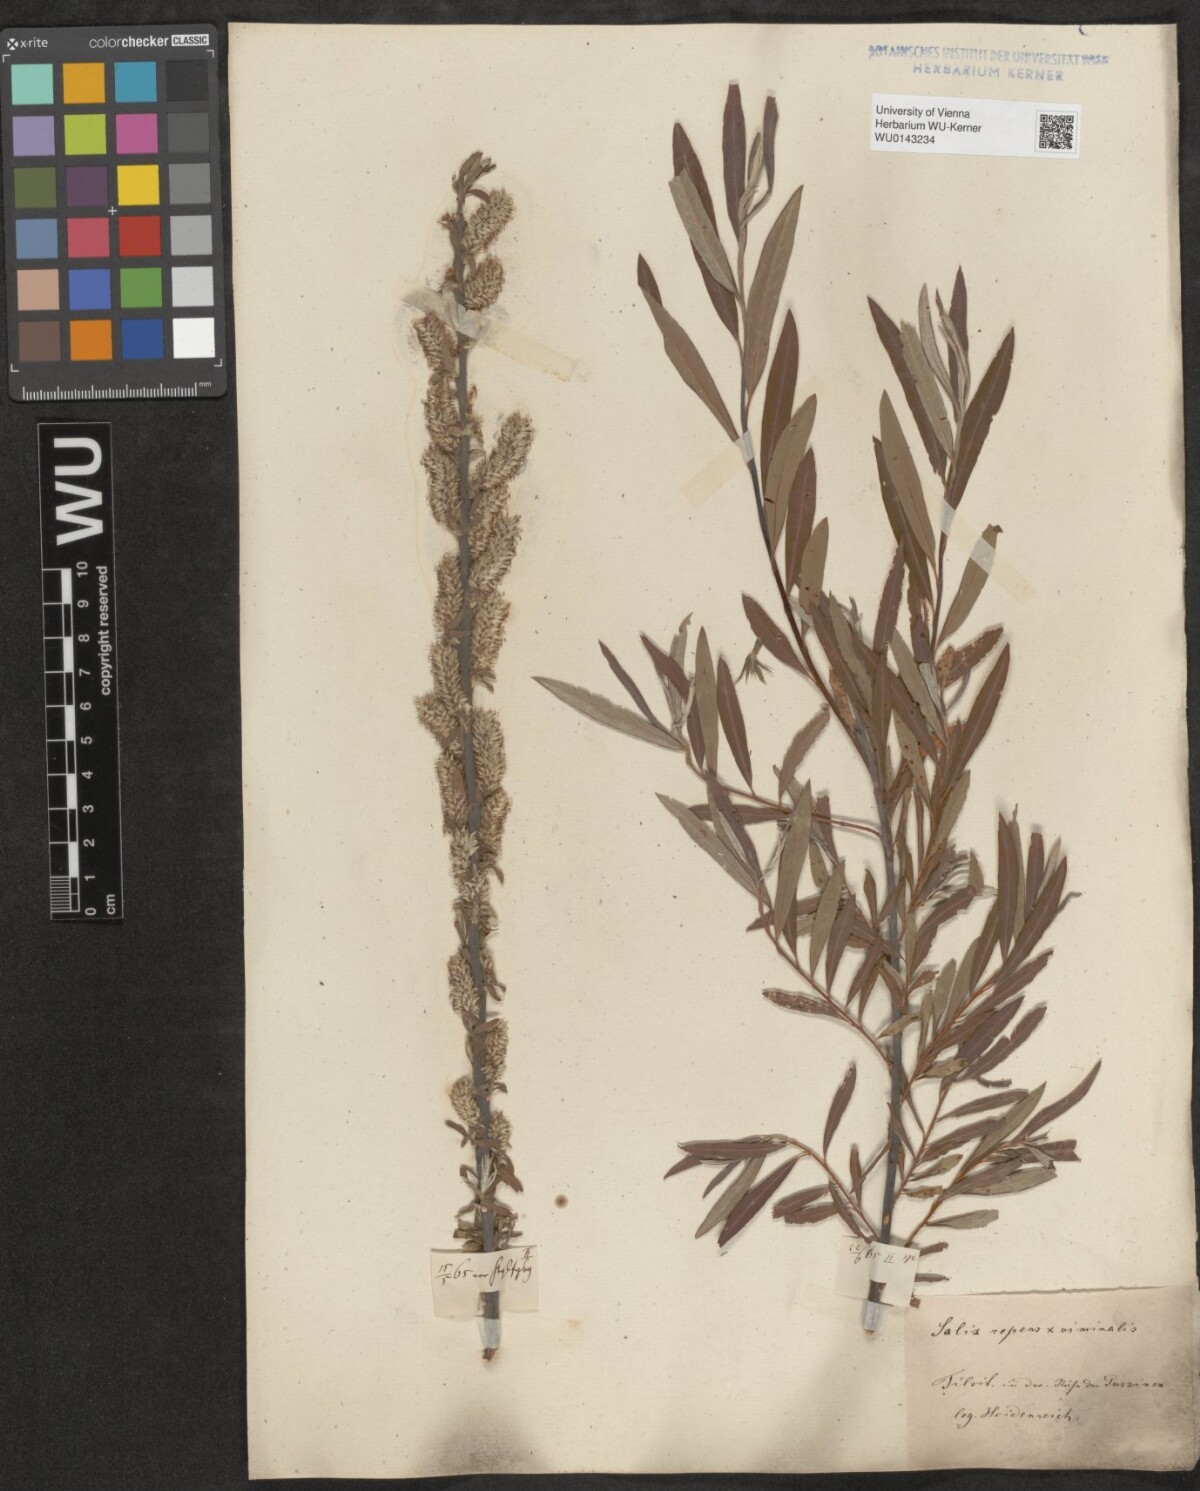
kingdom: Plantae
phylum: Tracheophyta
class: Magnoliopsida
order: Malpighiales
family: Salicaceae
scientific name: Salicaceae
